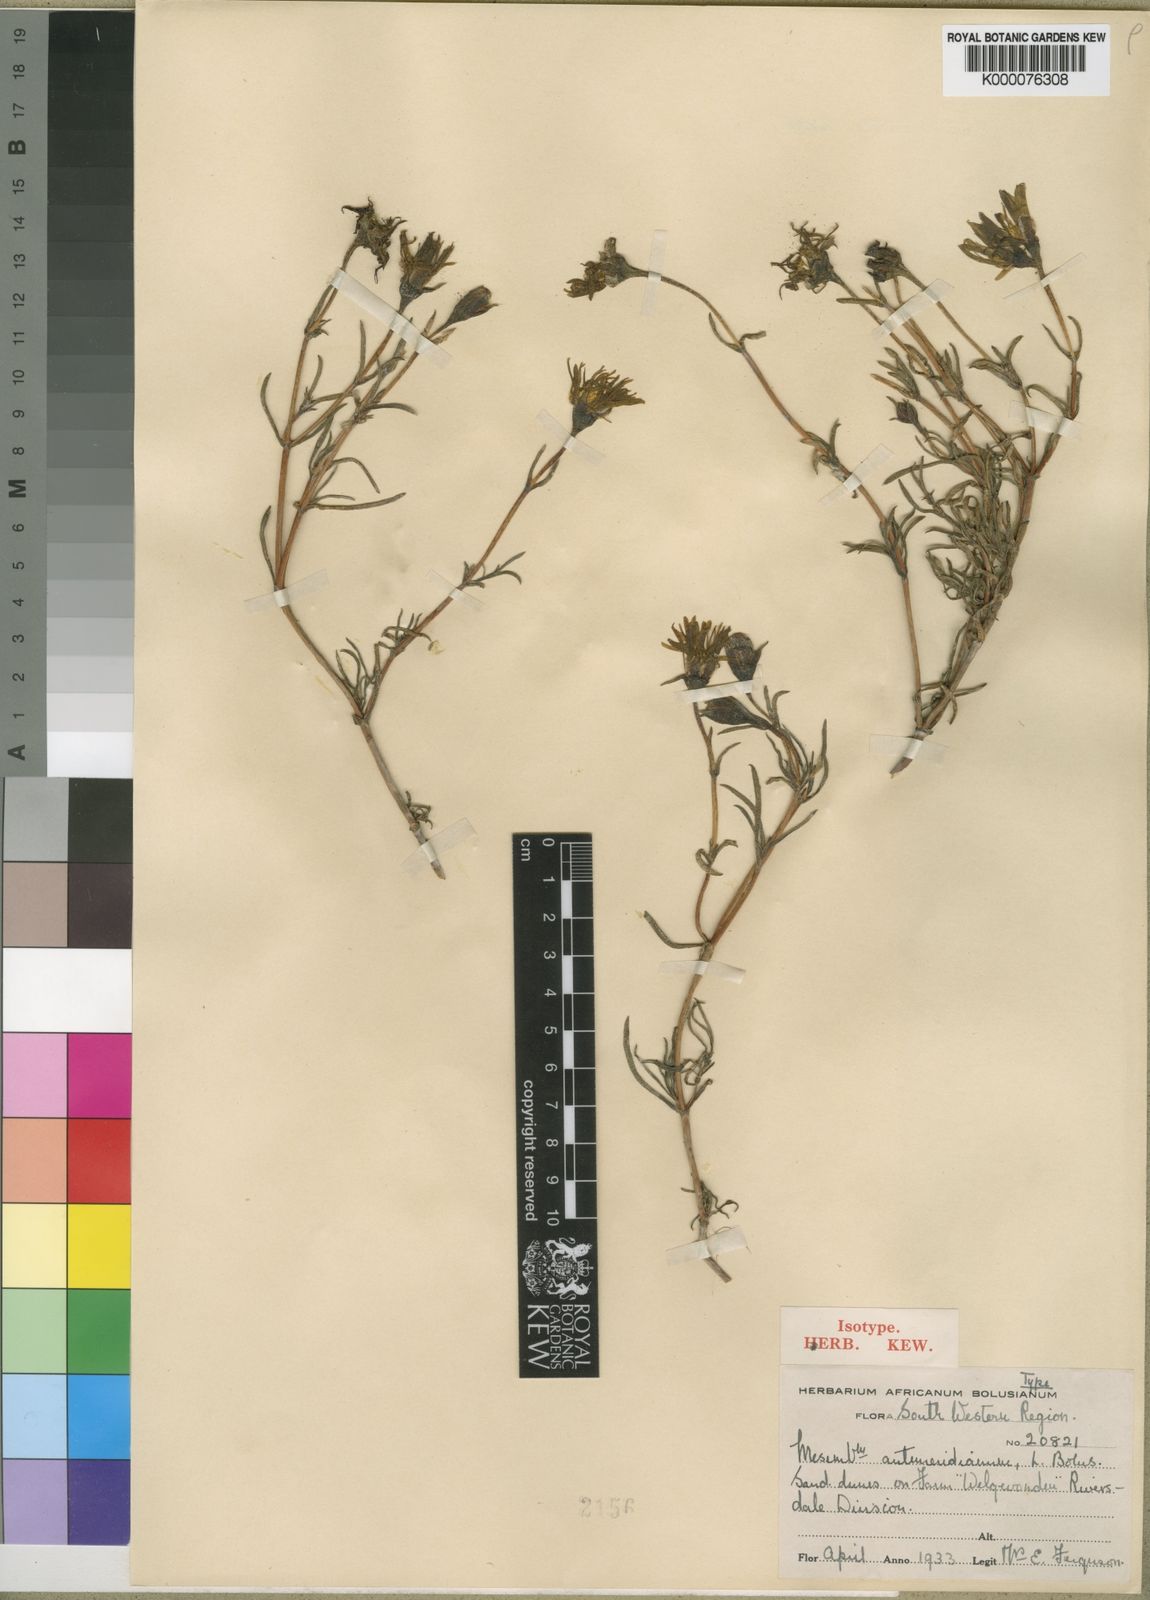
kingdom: Plantae
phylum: Tracheophyta
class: Magnoliopsida
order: Caryophyllales
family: Aizoaceae
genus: Lampranthus
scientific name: Lampranthus antemeridianus
